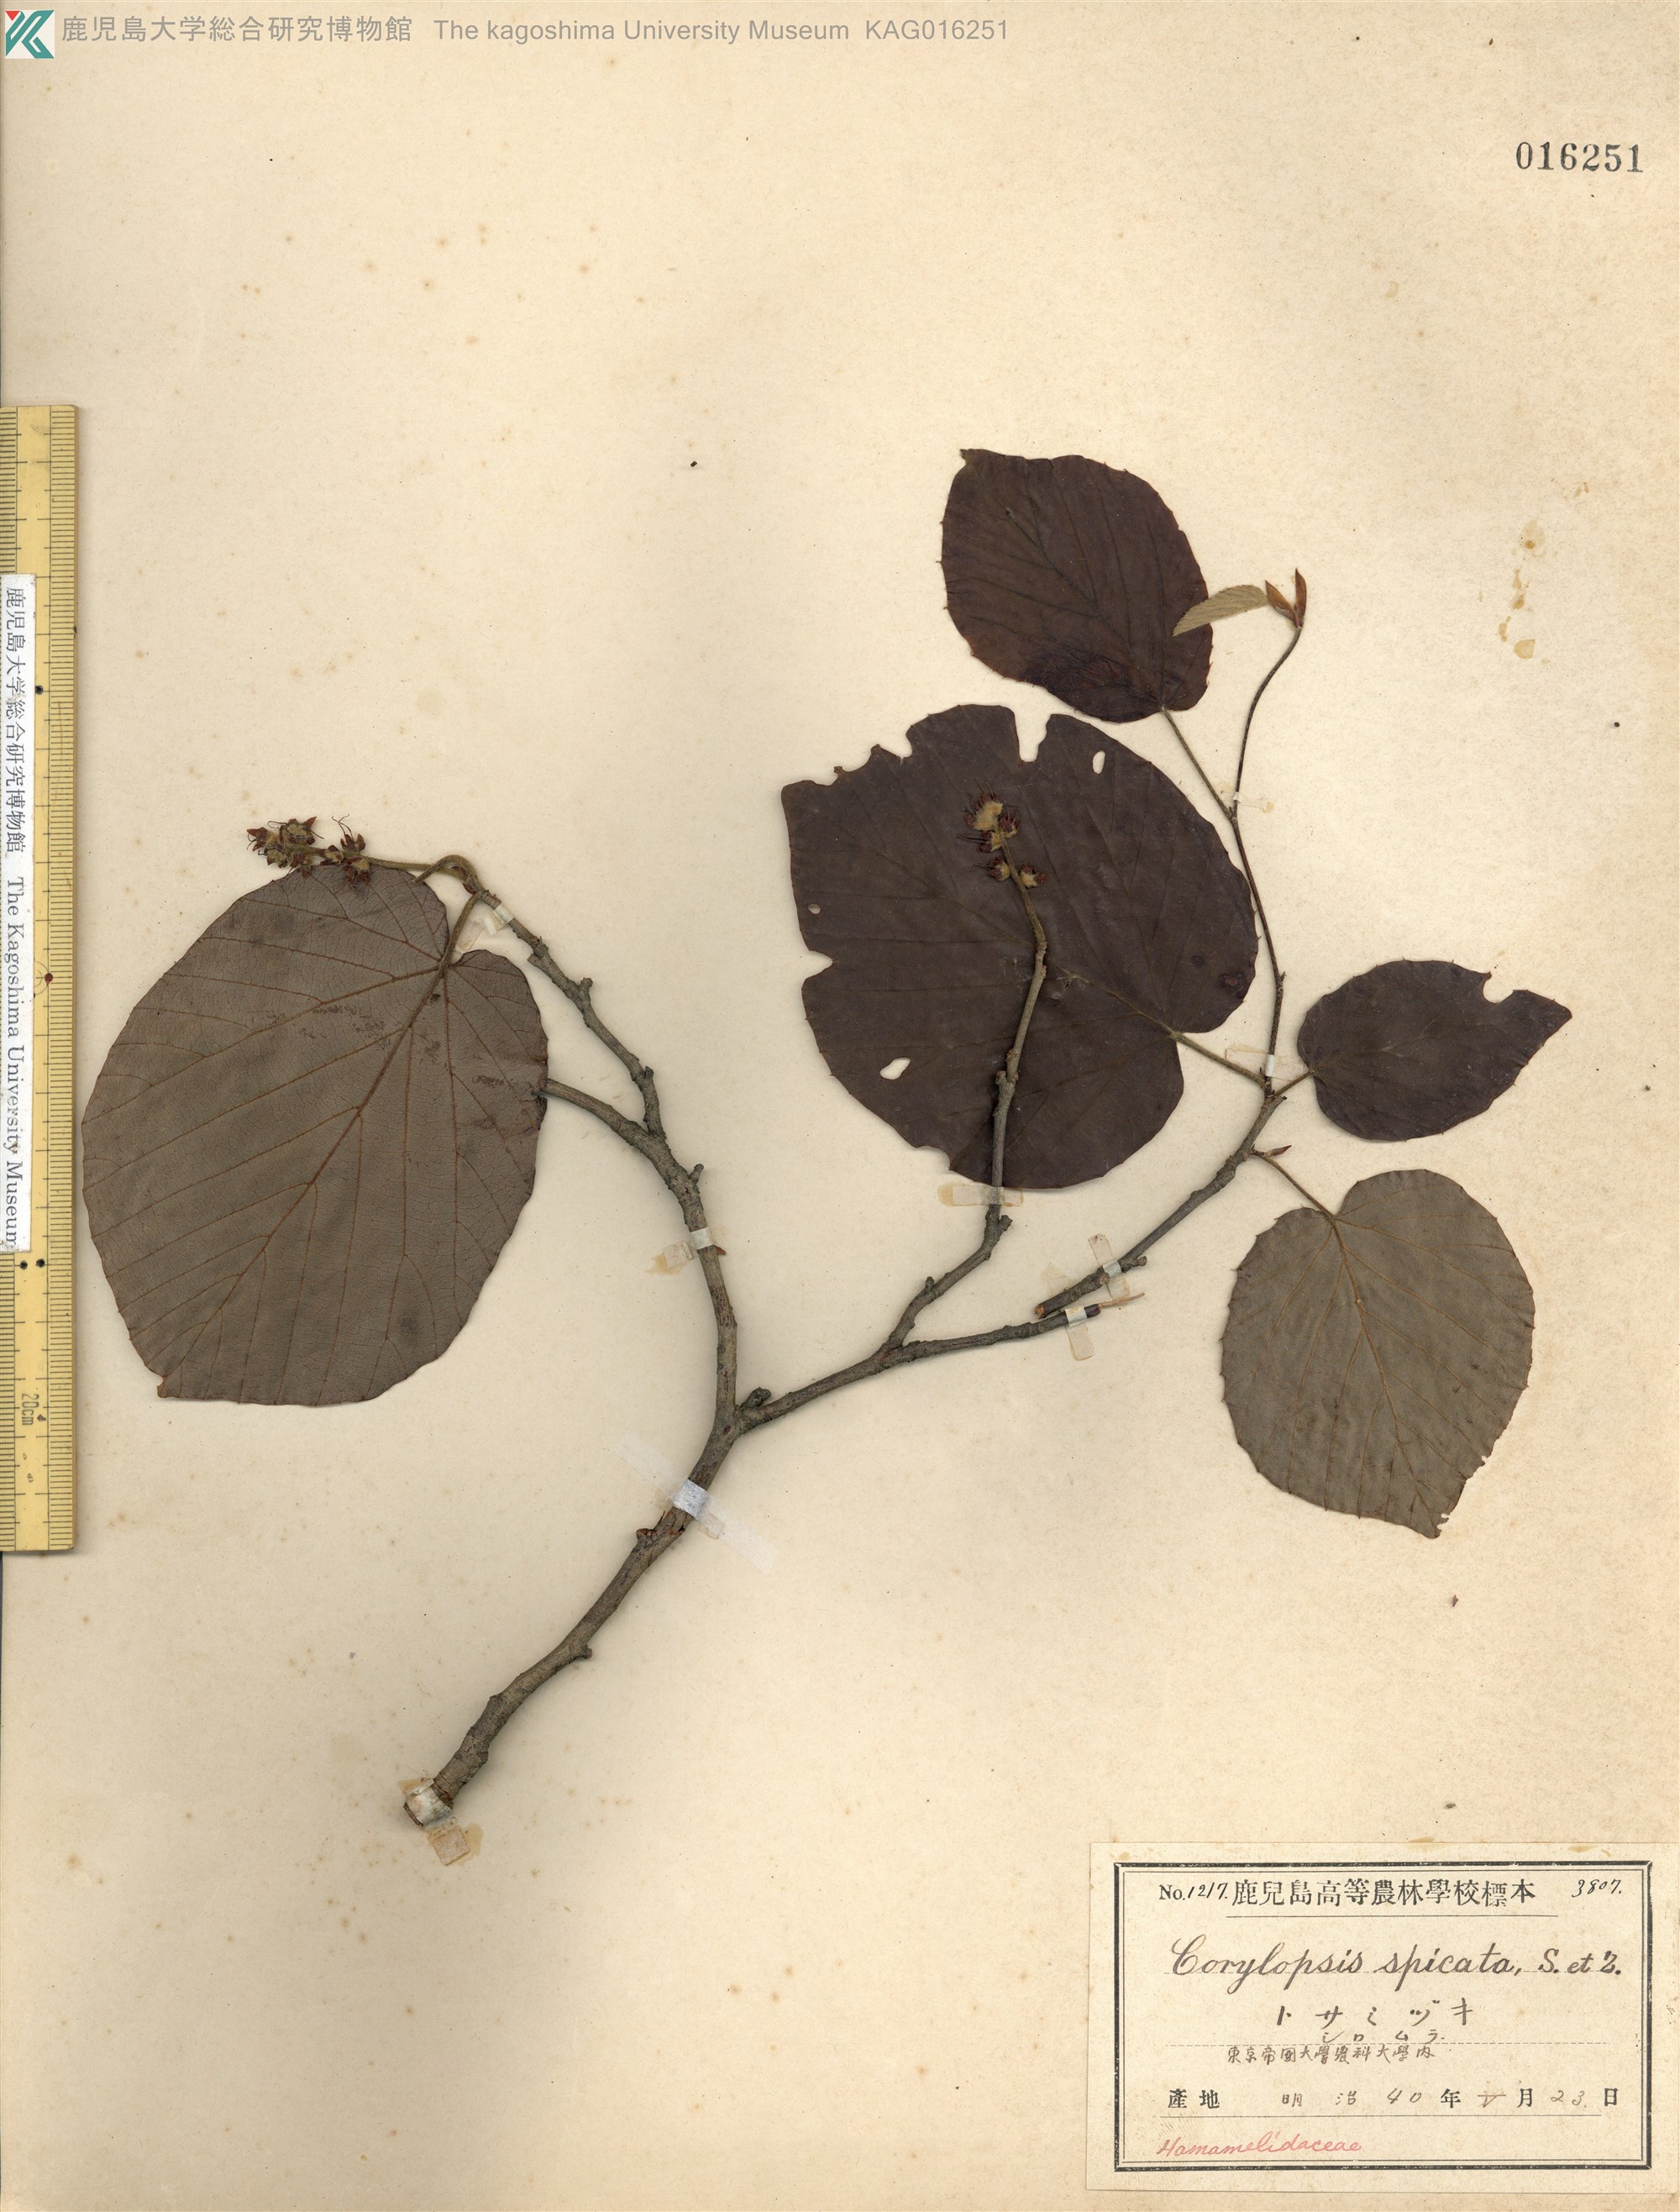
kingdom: Plantae
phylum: Tracheophyta
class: Magnoliopsida
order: Saxifragales
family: Hamamelidaceae
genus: Corylopsis
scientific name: Corylopsis spicata
